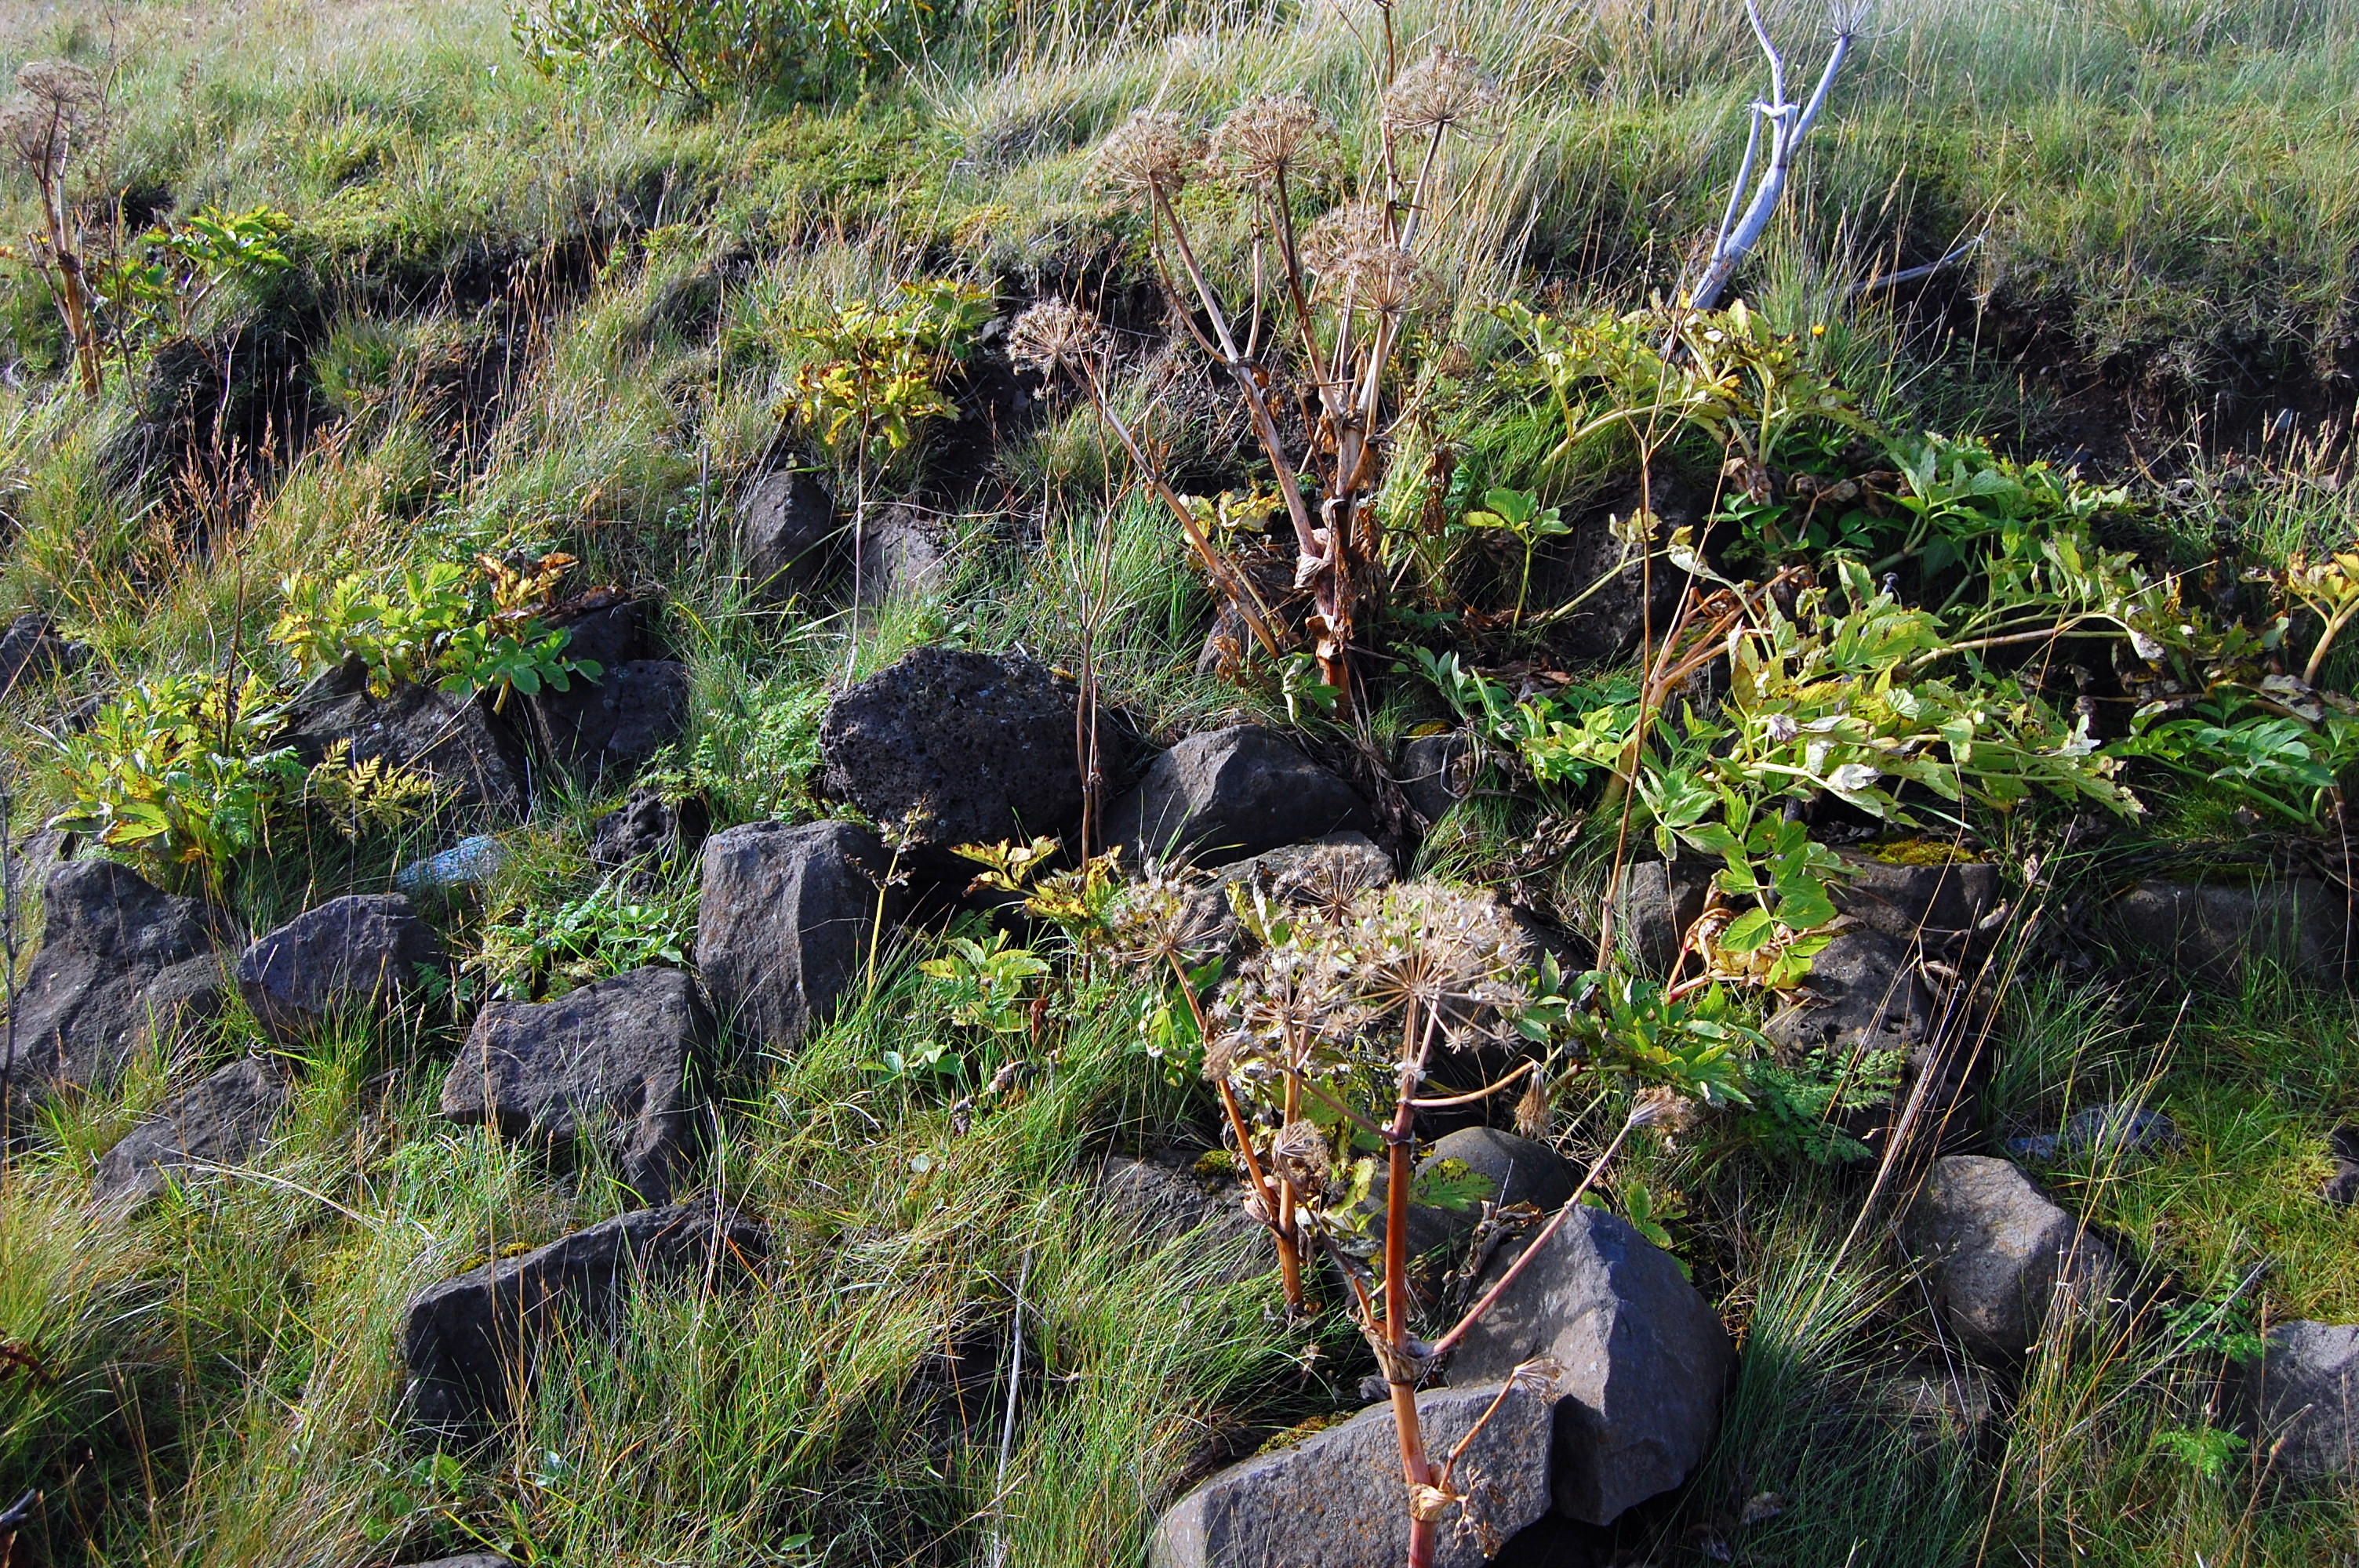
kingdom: Plantae
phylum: Tracheophyta
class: Magnoliopsida
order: Apiales
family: Apiaceae
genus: Angelica
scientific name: Angelica archangelica
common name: Garden angelica
